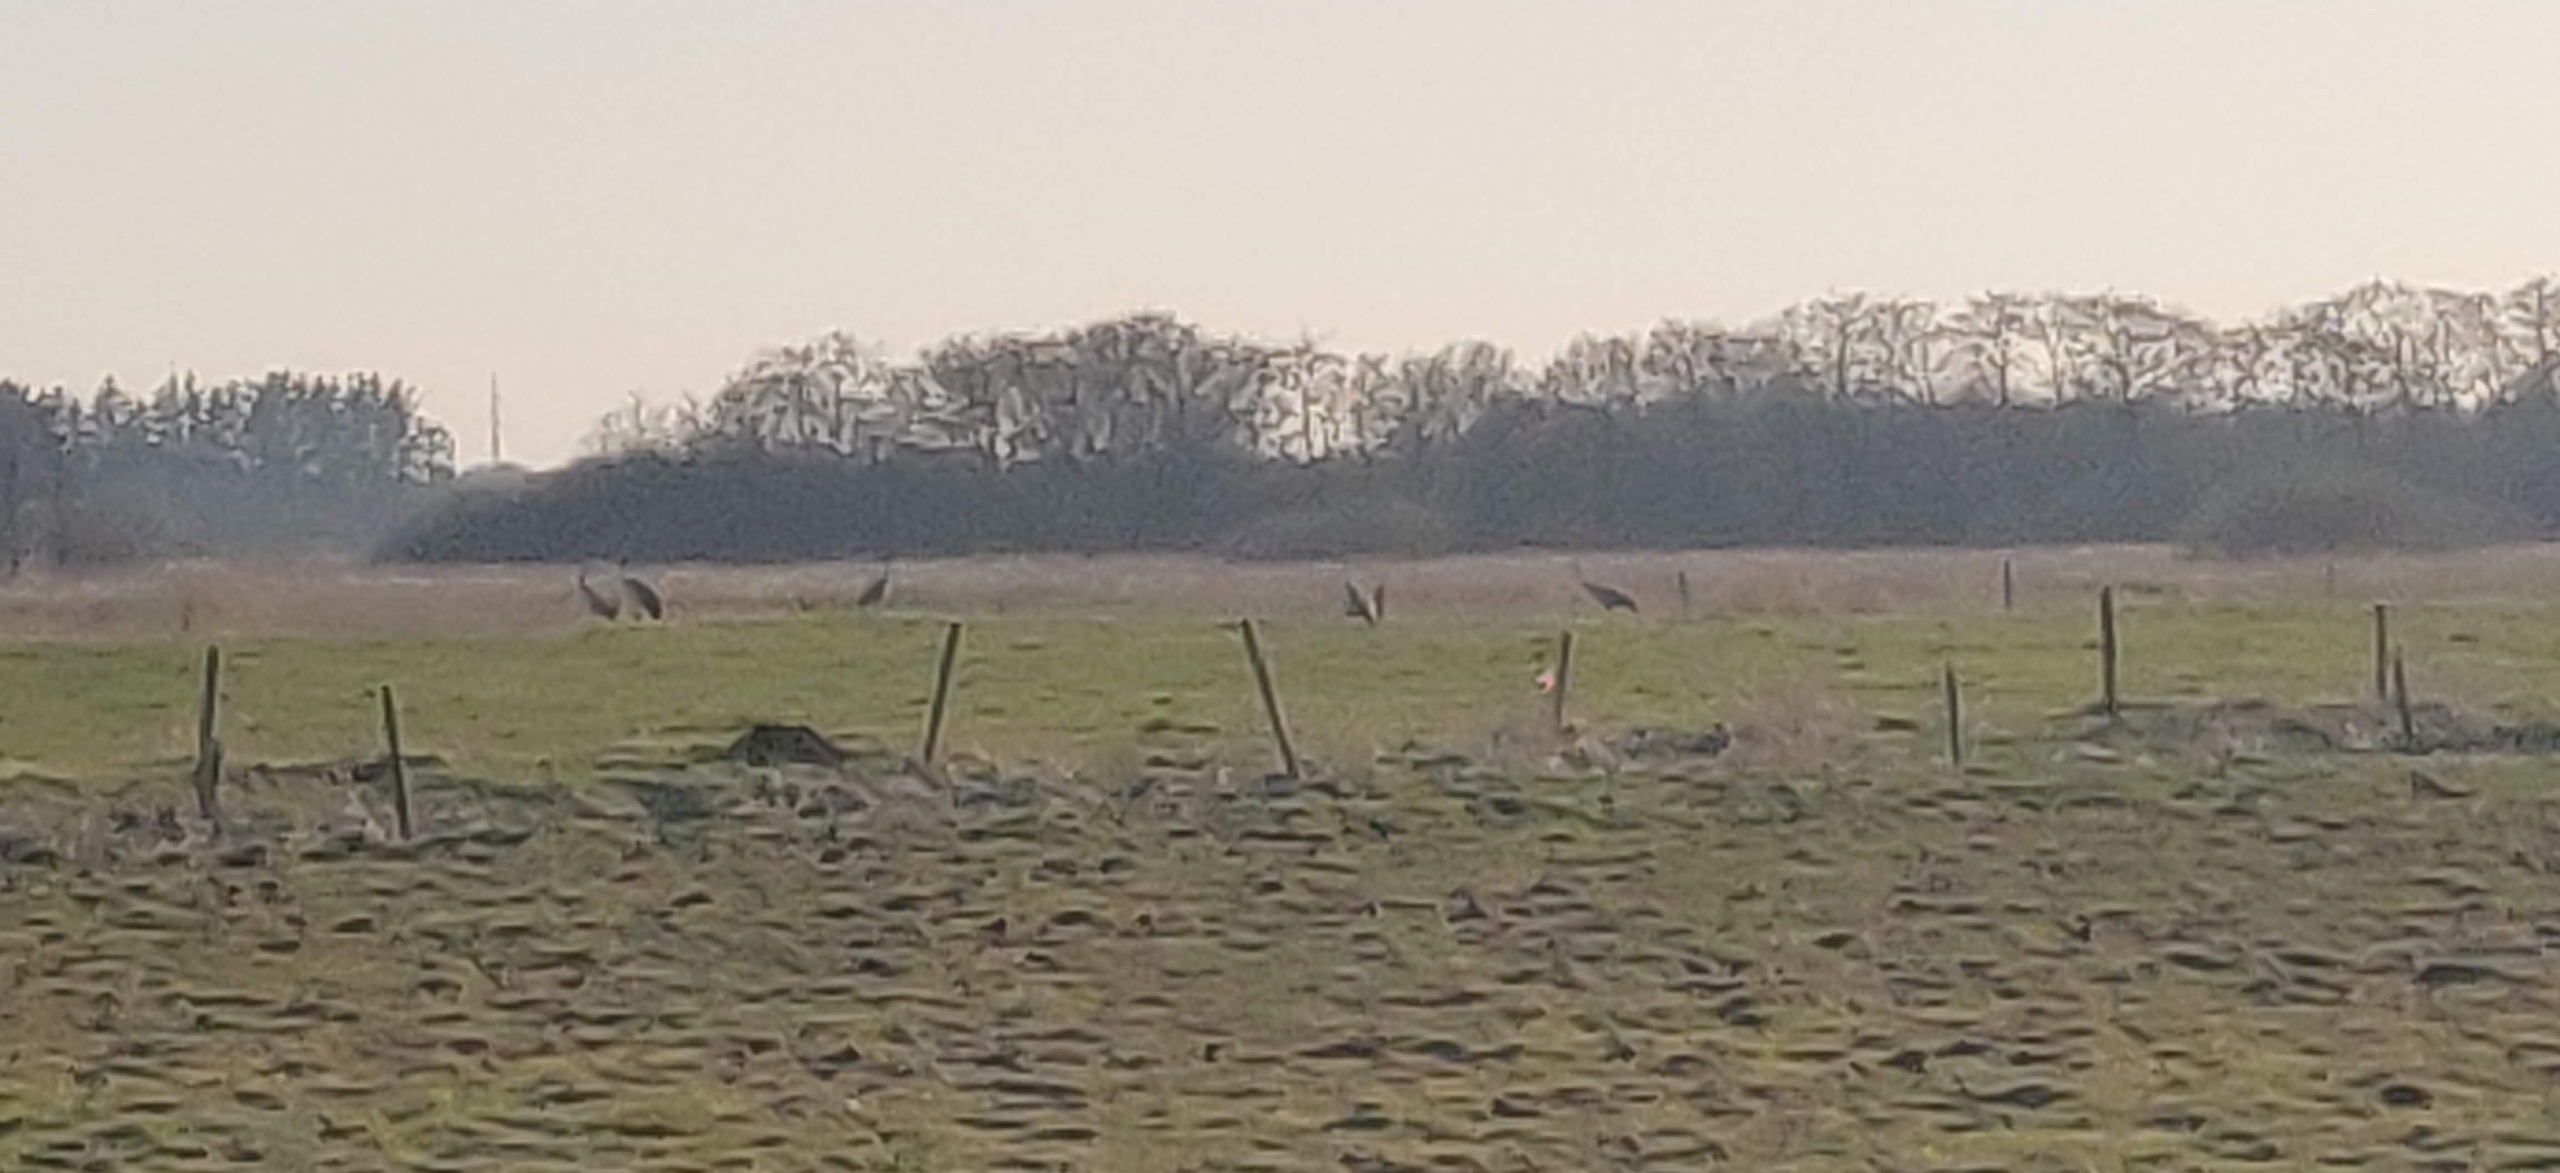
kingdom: Animalia
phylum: Chordata
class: Aves
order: Gruiformes
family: Gruidae
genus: Grus
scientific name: Grus grus
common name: Trane
